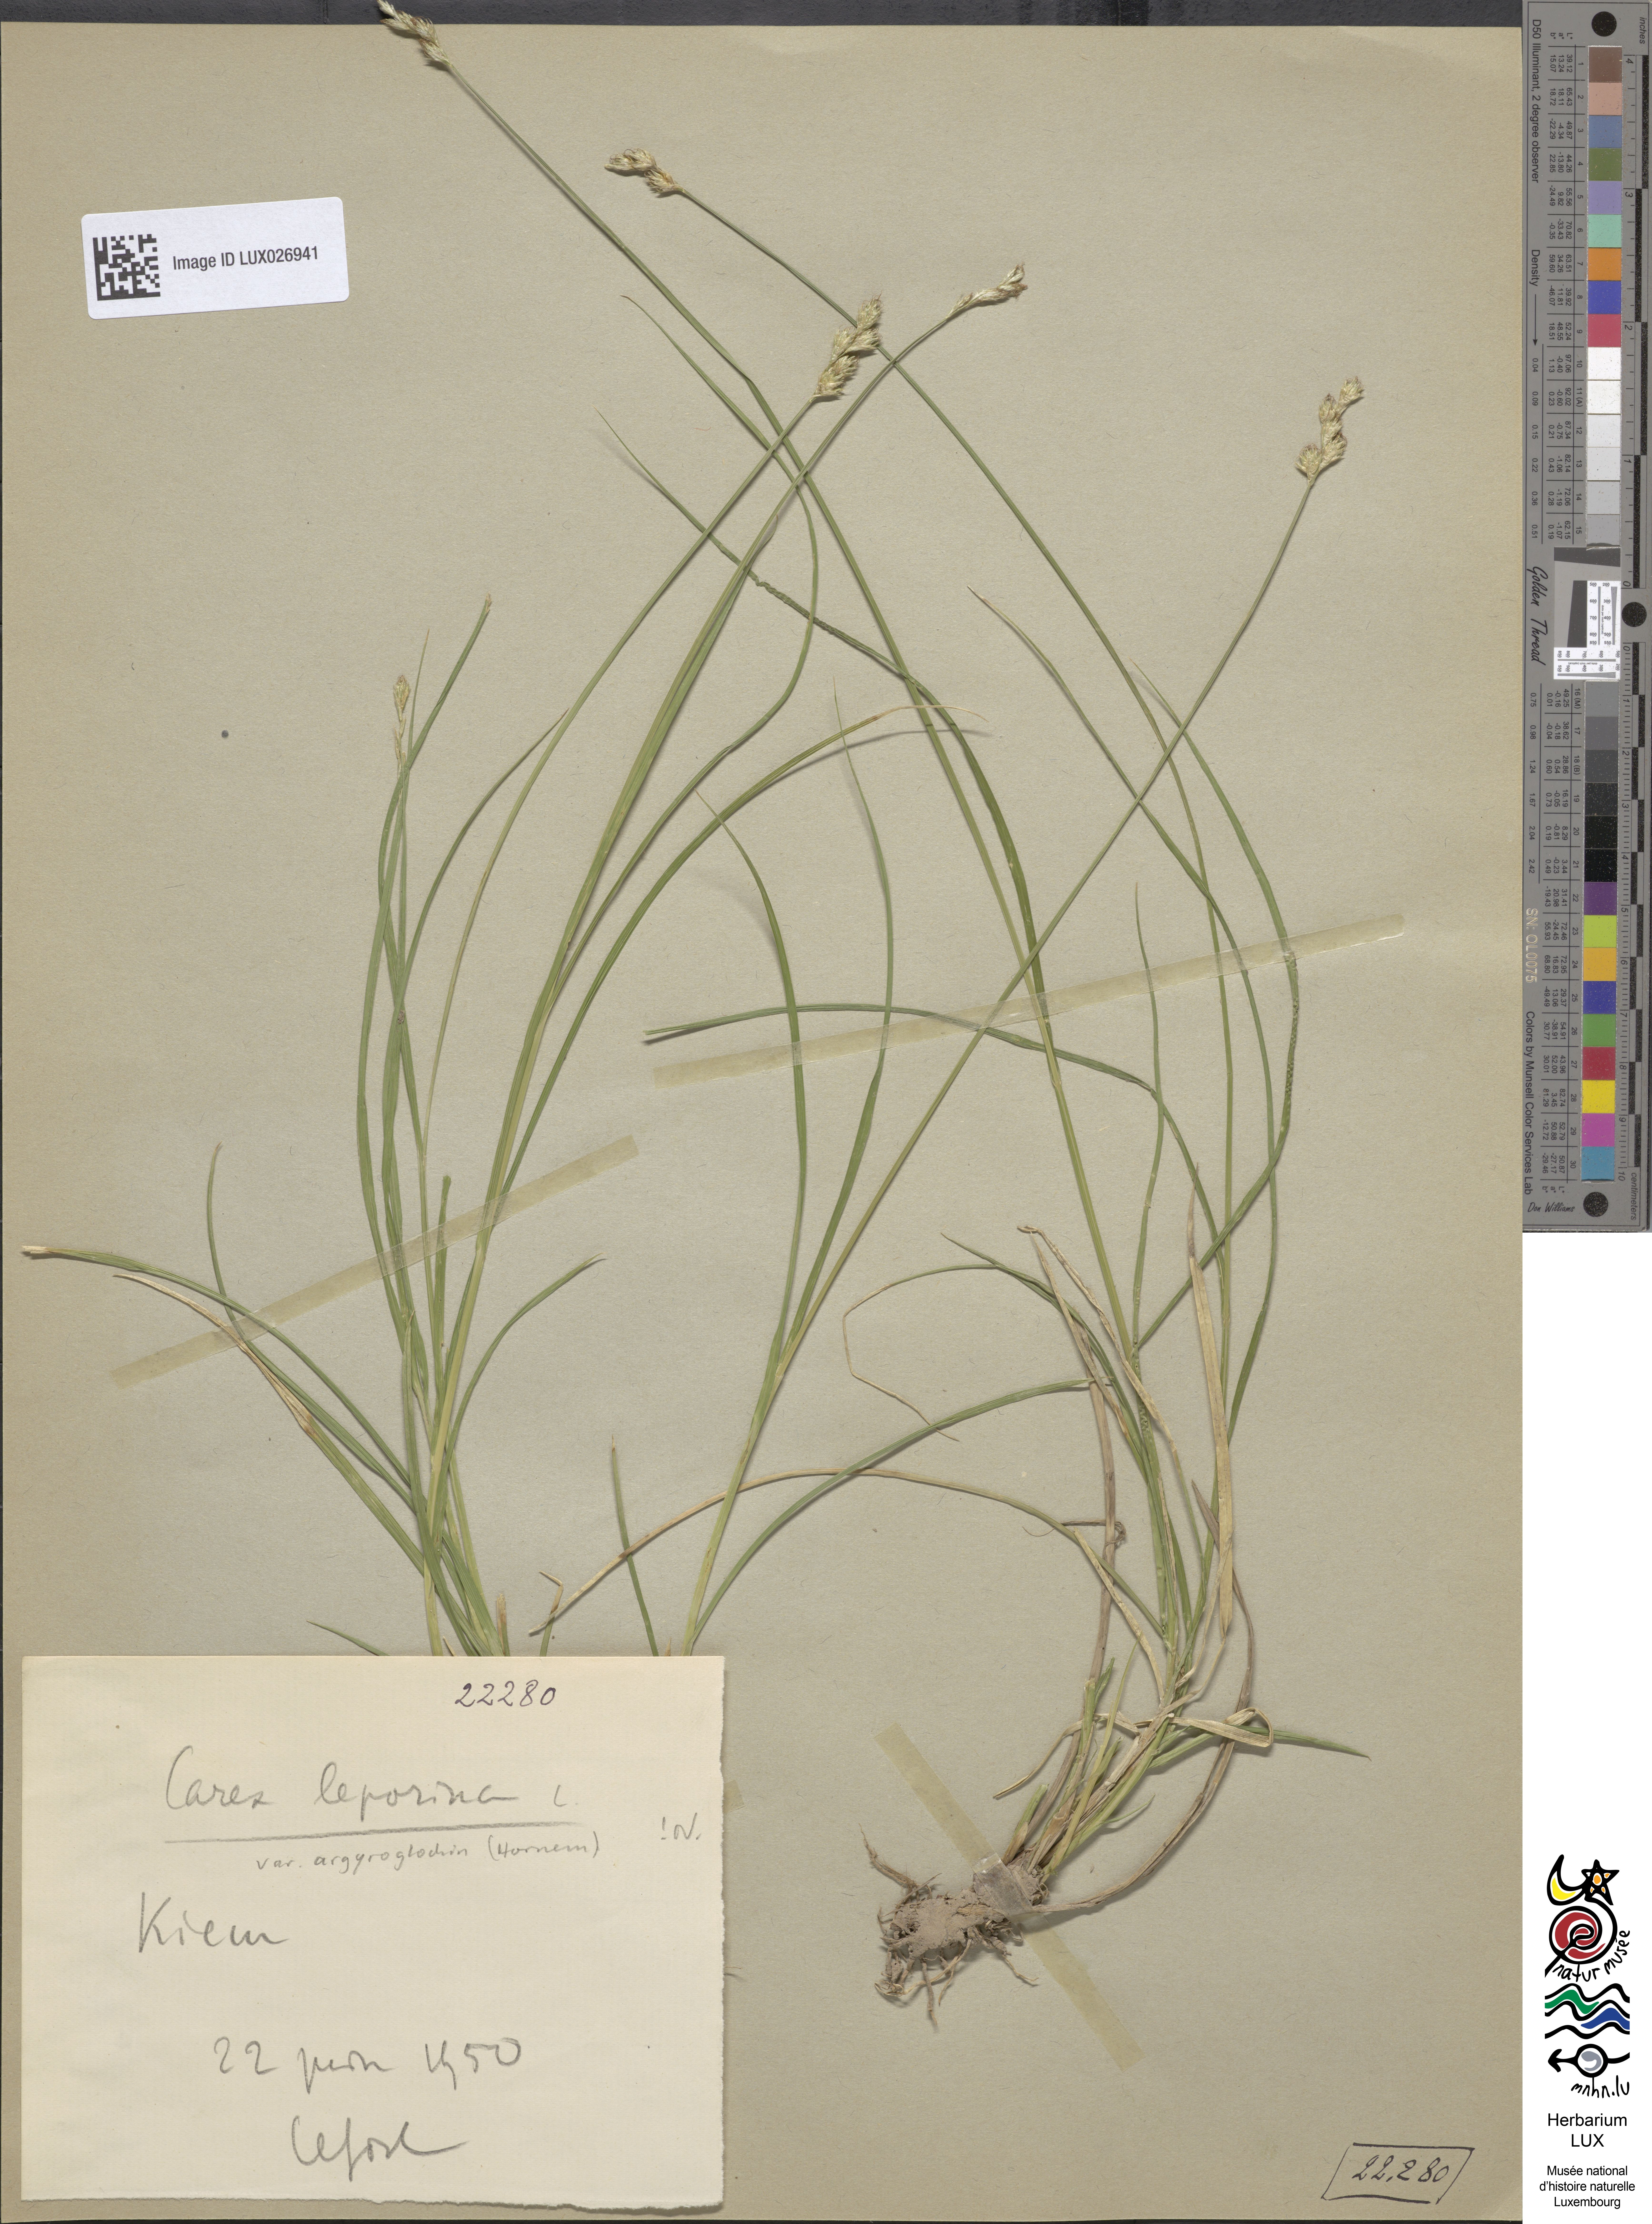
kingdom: Plantae
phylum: Tracheophyta
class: Liliopsida
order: Poales
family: Cyperaceae
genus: Carex
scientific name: Carex leporina
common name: Oval sedge
